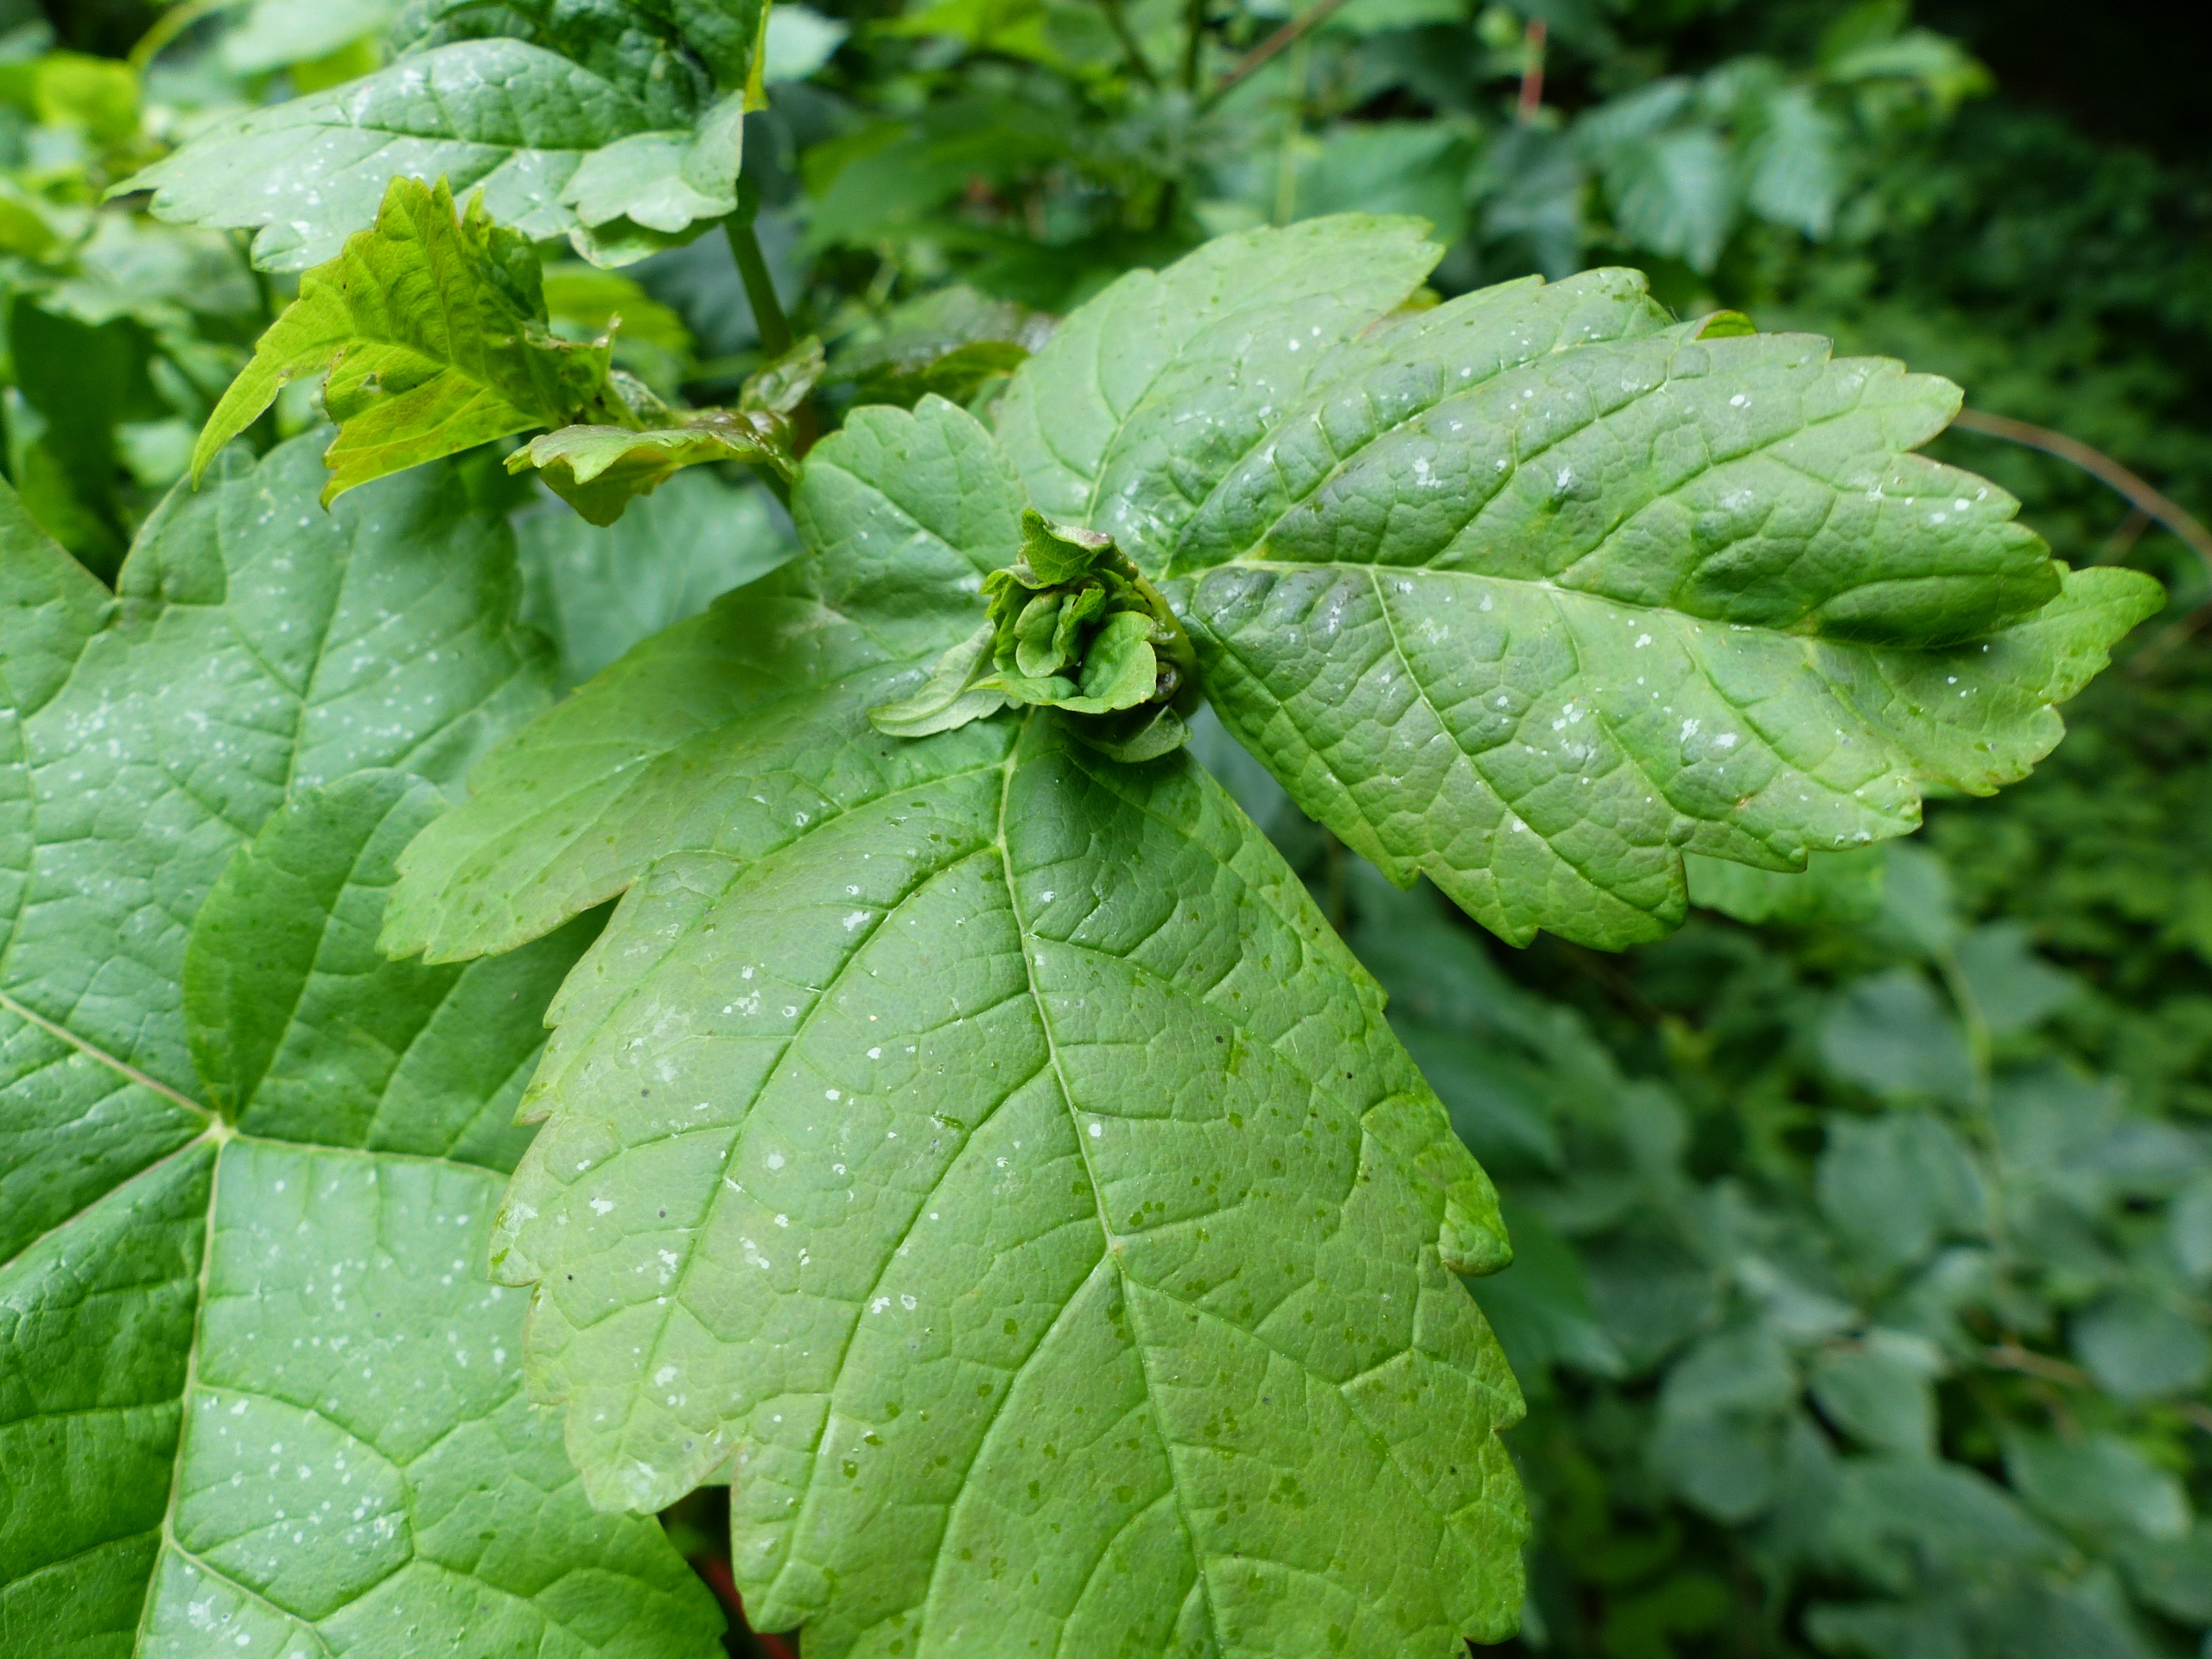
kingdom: Animalia
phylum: Arthropoda
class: Insecta
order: Diptera
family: Cecidomyiidae
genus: Dasineura
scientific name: Dasineura irregularis
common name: Ahornkrusegalmyg
